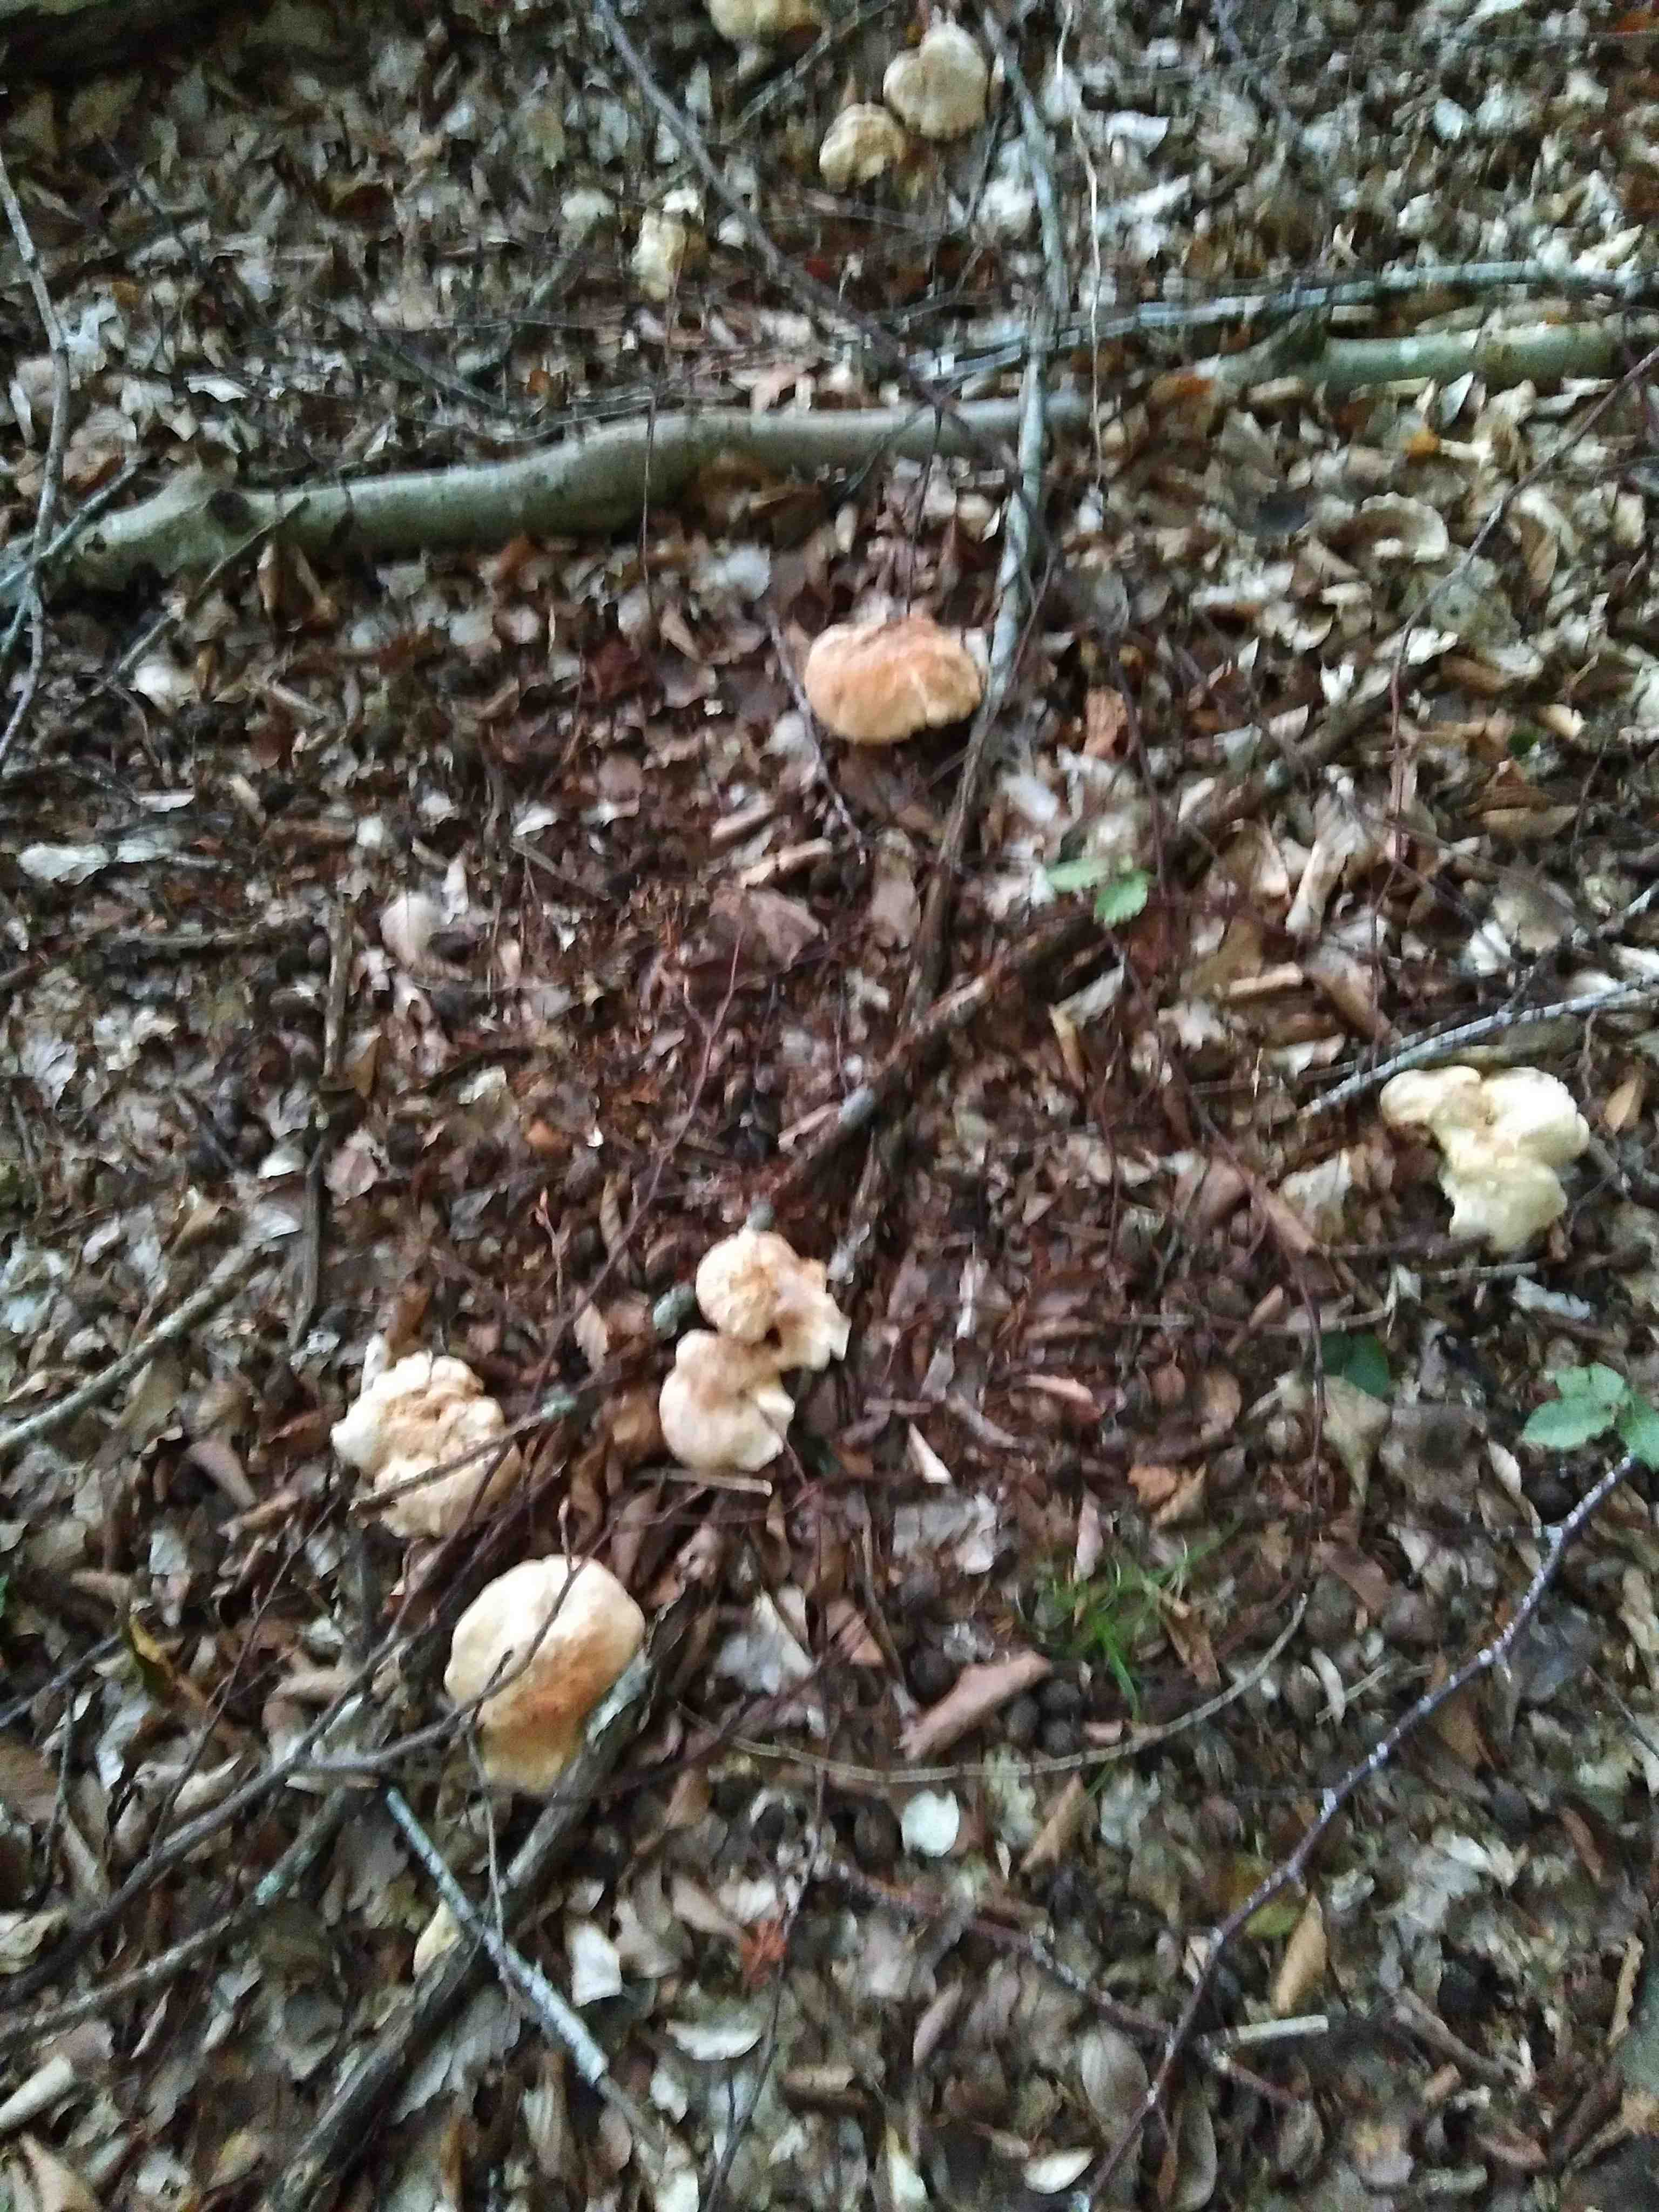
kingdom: Fungi
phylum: Basidiomycota
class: Agaricomycetes
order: Cantharellales
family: Hydnaceae
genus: Hydnum
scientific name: Hydnum
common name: pigsvamp
